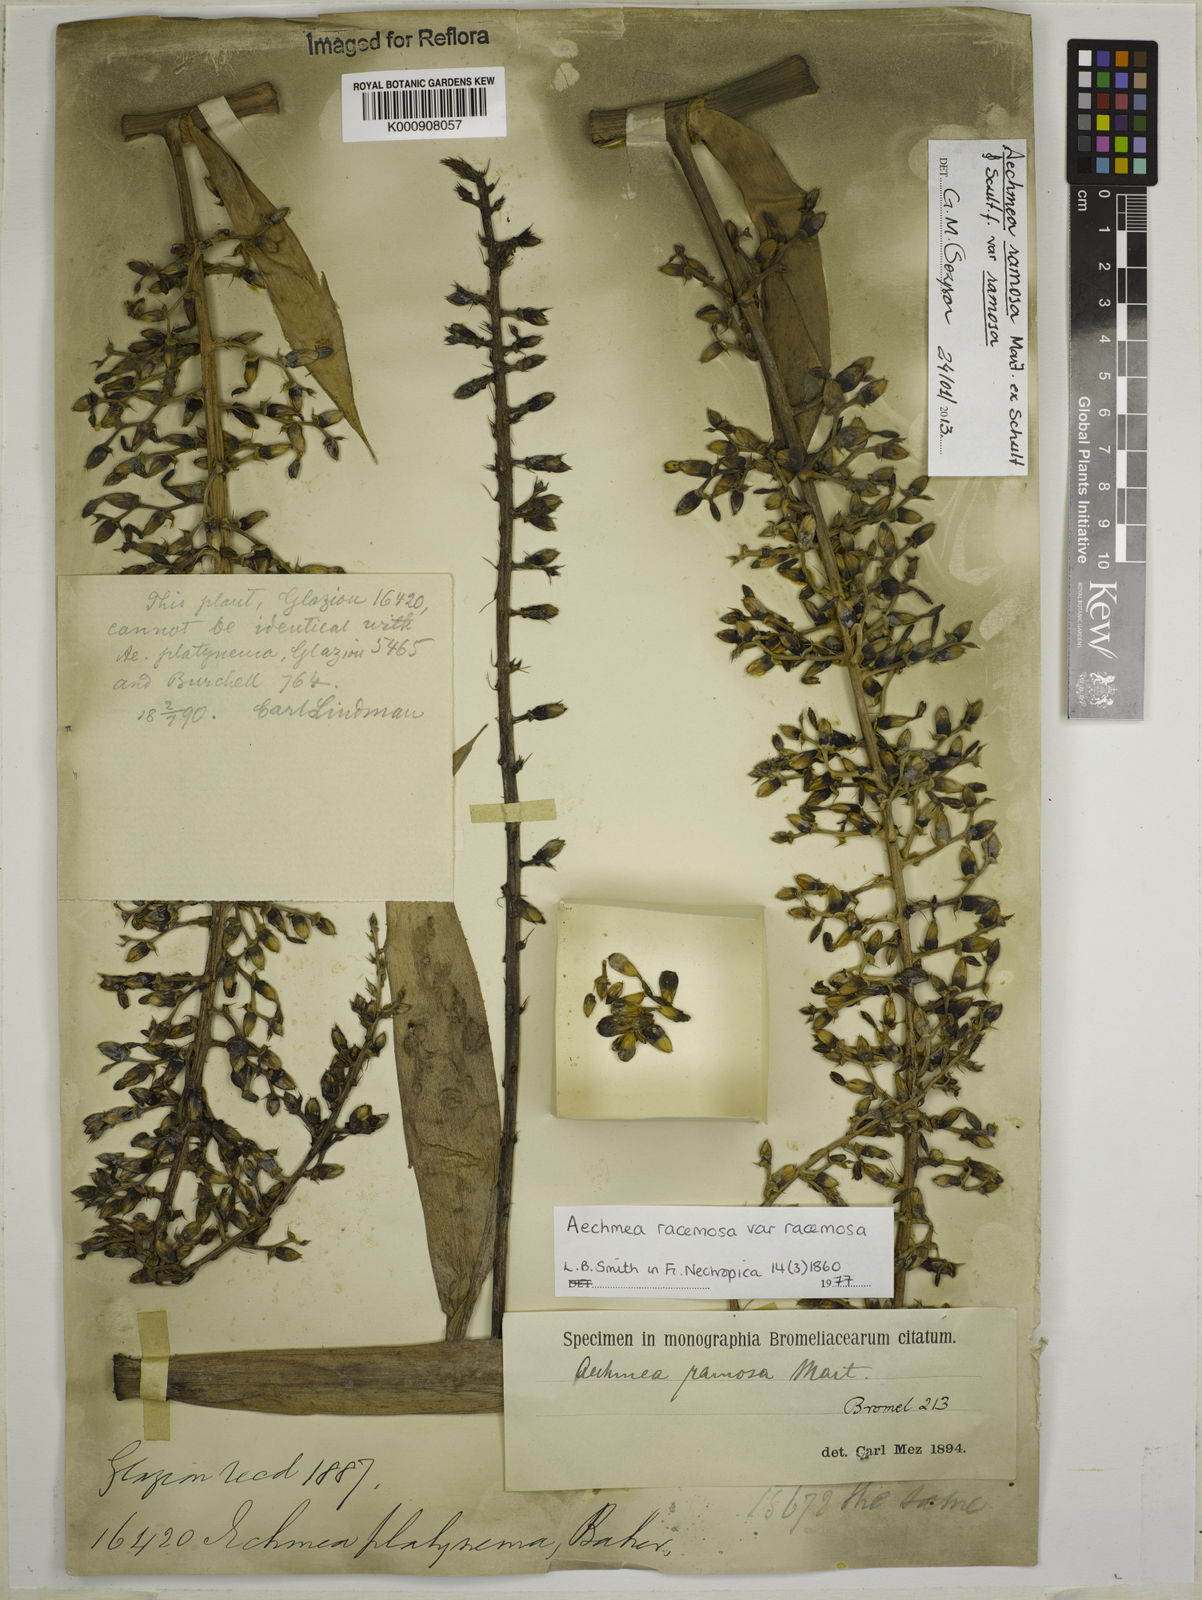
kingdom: Plantae
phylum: Tracheophyta
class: Liliopsida
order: Poales
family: Bromeliaceae
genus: Aechmea
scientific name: Aechmea
